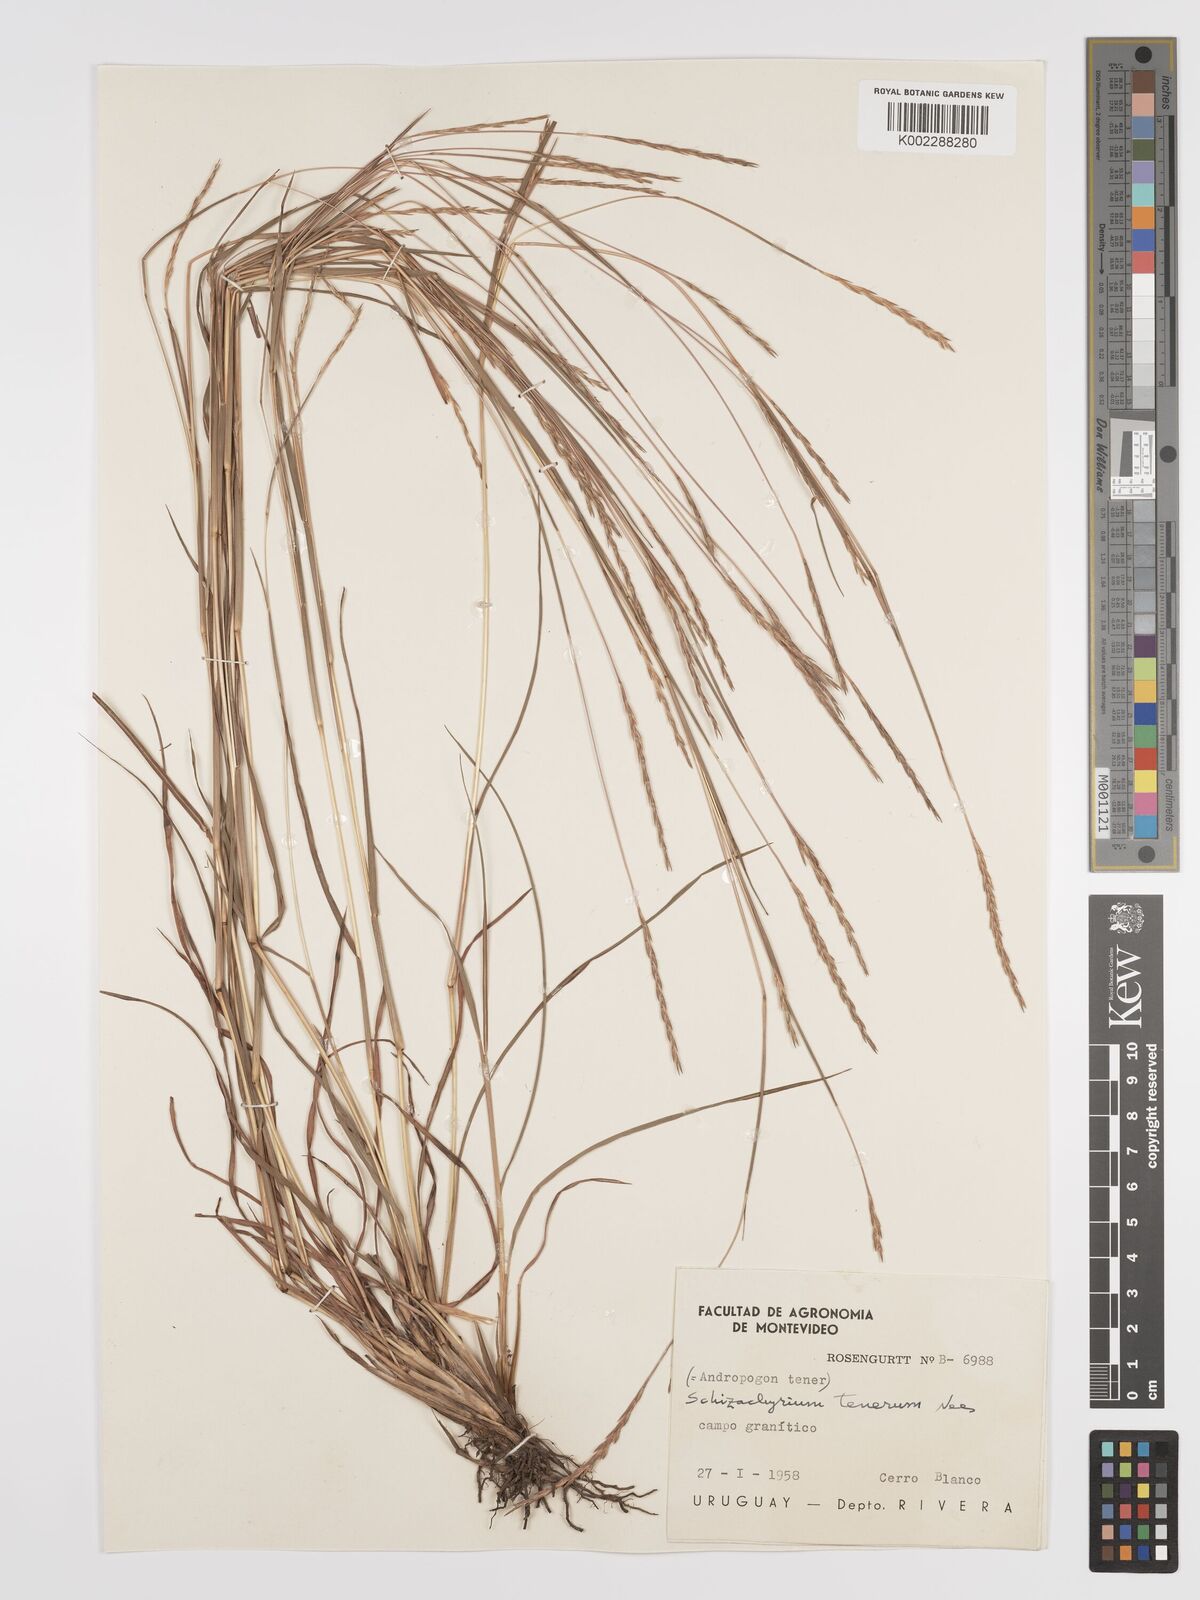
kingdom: Plantae
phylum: Tracheophyta
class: Liliopsida
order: Poales
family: Poaceae
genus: Andropogon
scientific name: Andropogon tener
